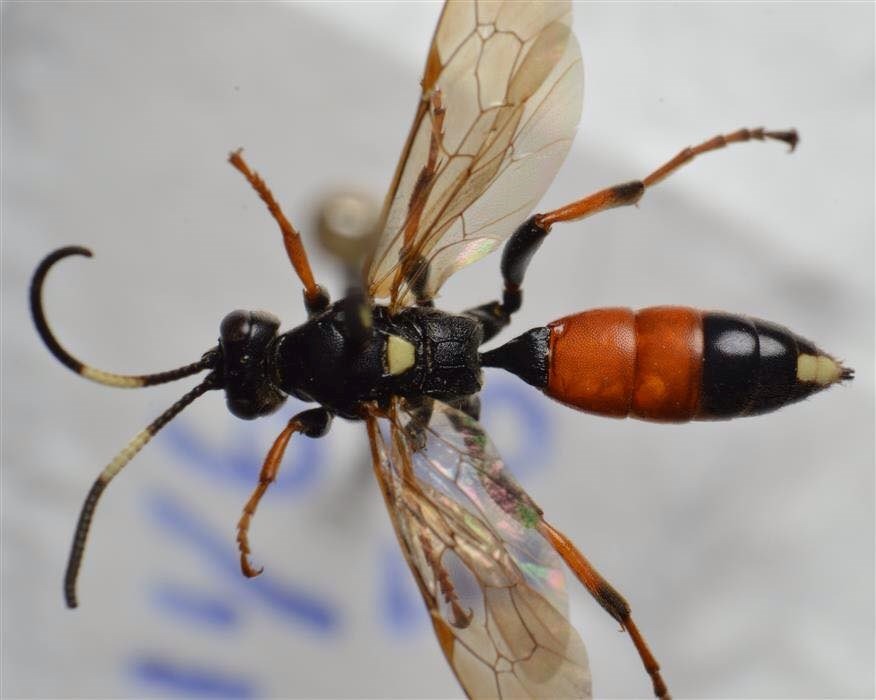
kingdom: Animalia
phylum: Arthropoda
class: Insecta
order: Hymenoptera
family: Ichneumonidae
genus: Ichneumon
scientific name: Ichneumon albiger
